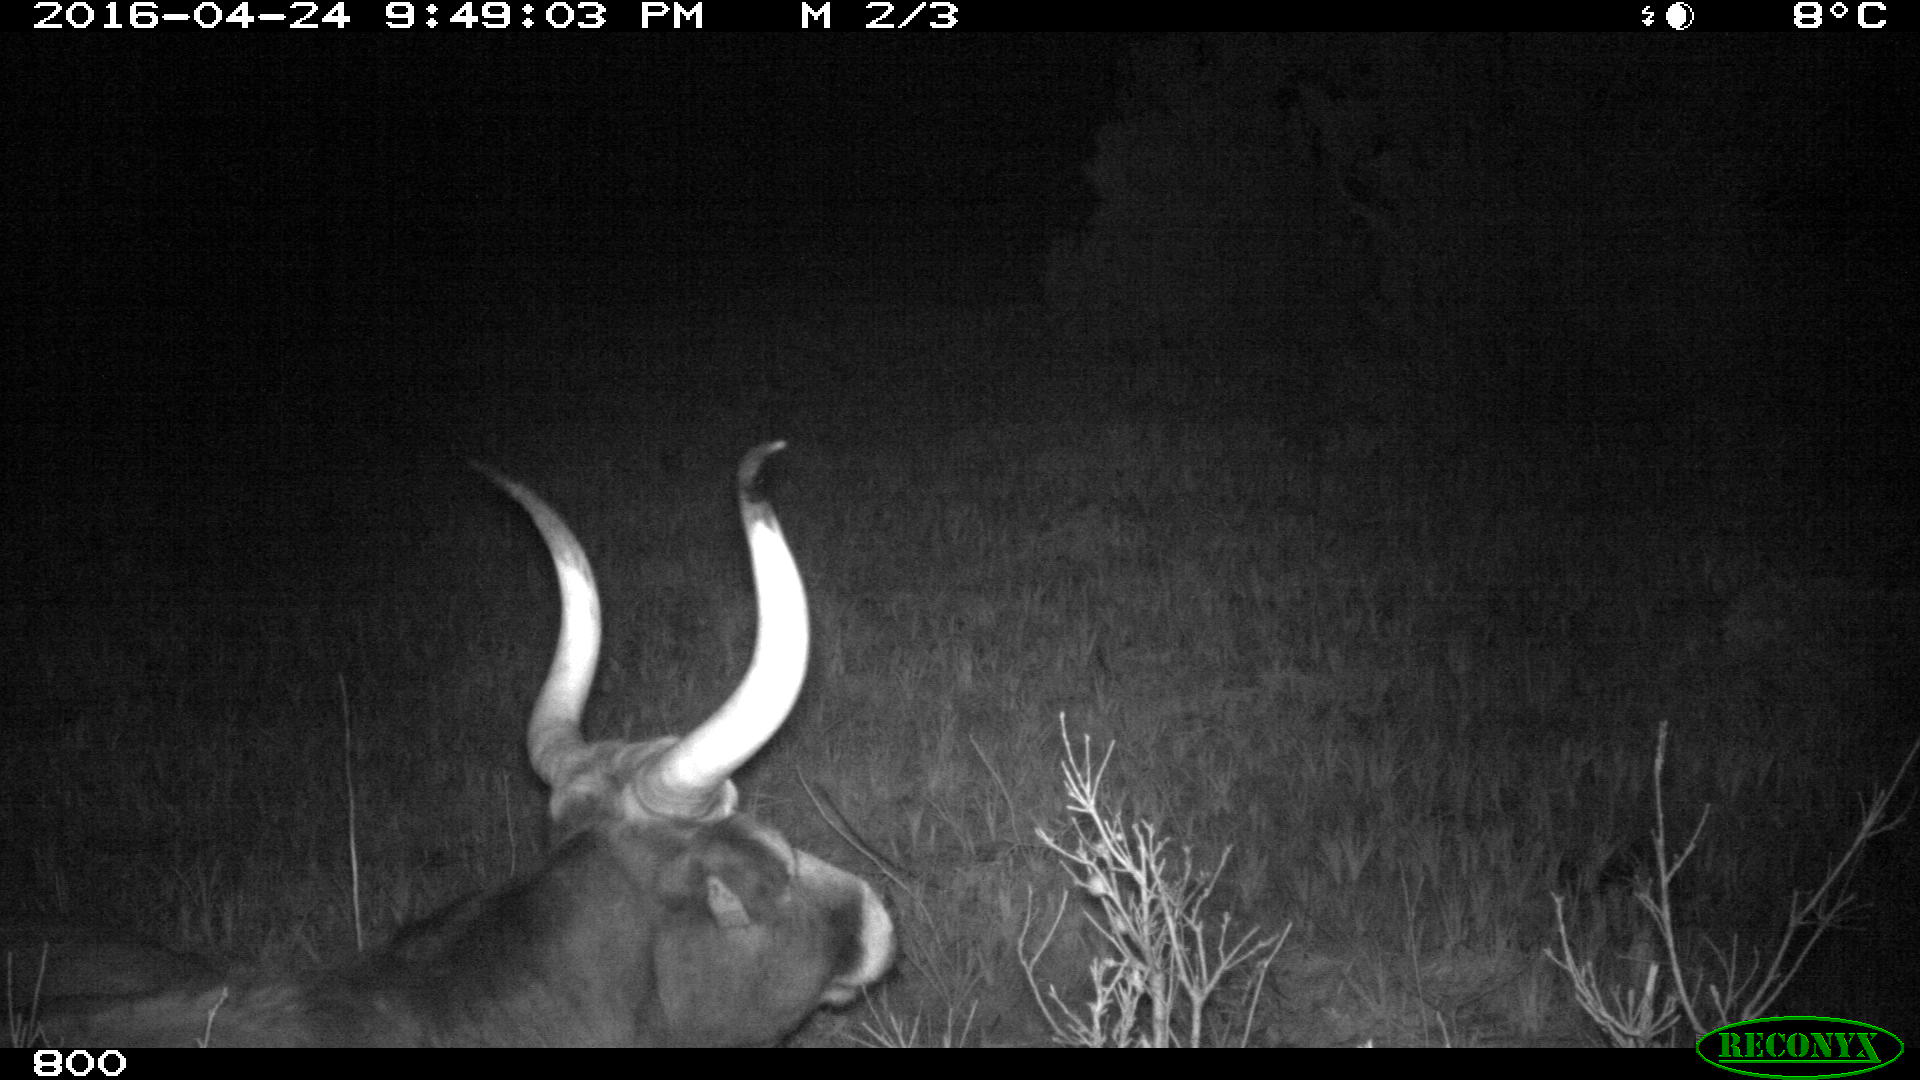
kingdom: Animalia
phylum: Chordata
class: Mammalia
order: Artiodactyla
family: Bovidae
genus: Bos
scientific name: Bos taurus
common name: Domesticated cattle
